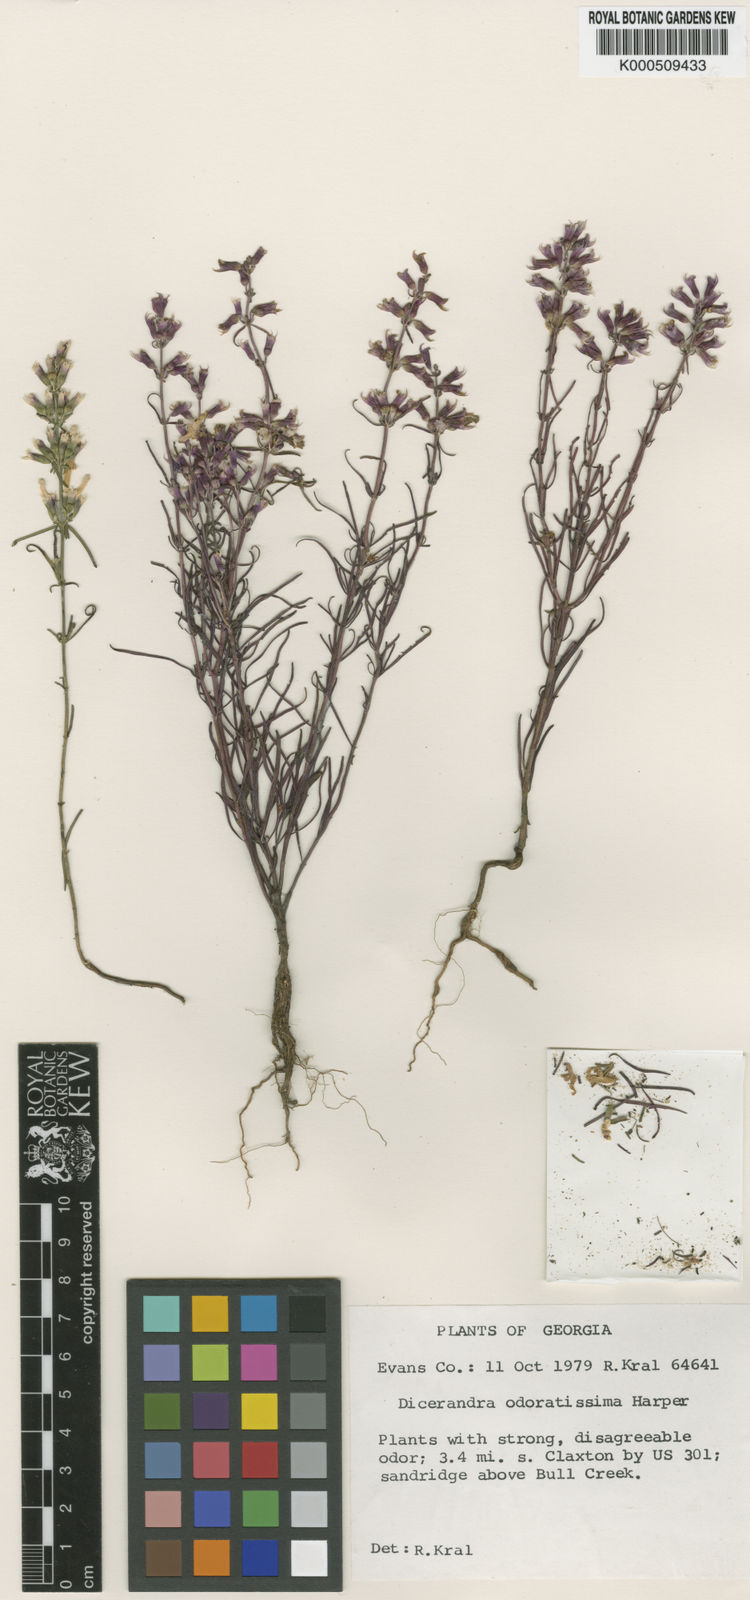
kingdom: Plantae
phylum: Tracheophyta
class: Magnoliopsida
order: Lamiales
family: Lamiaceae
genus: Dicerandra
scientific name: Dicerandra odaratissima
